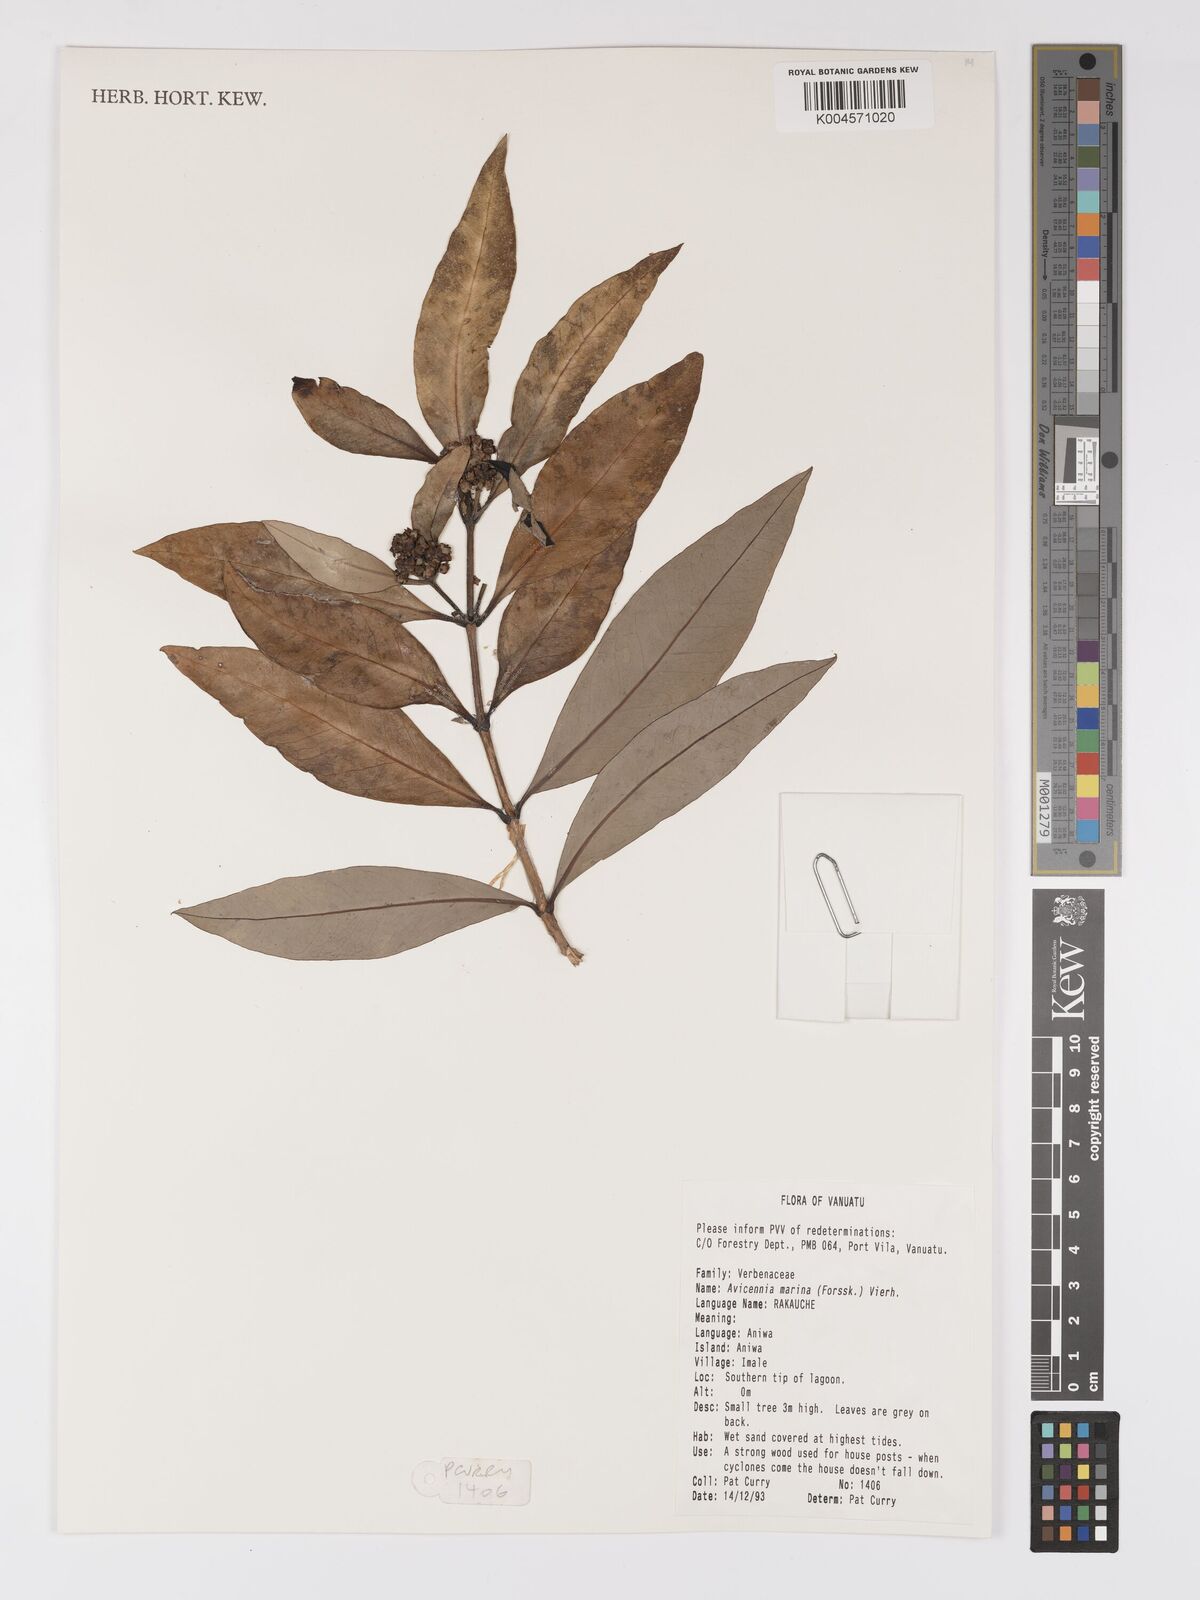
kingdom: Plantae
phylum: Tracheophyta
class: Magnoliopsida
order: Lamiales
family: Acanthaceae
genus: Avicennia
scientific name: Avicennia marina
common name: Gray mangrove
